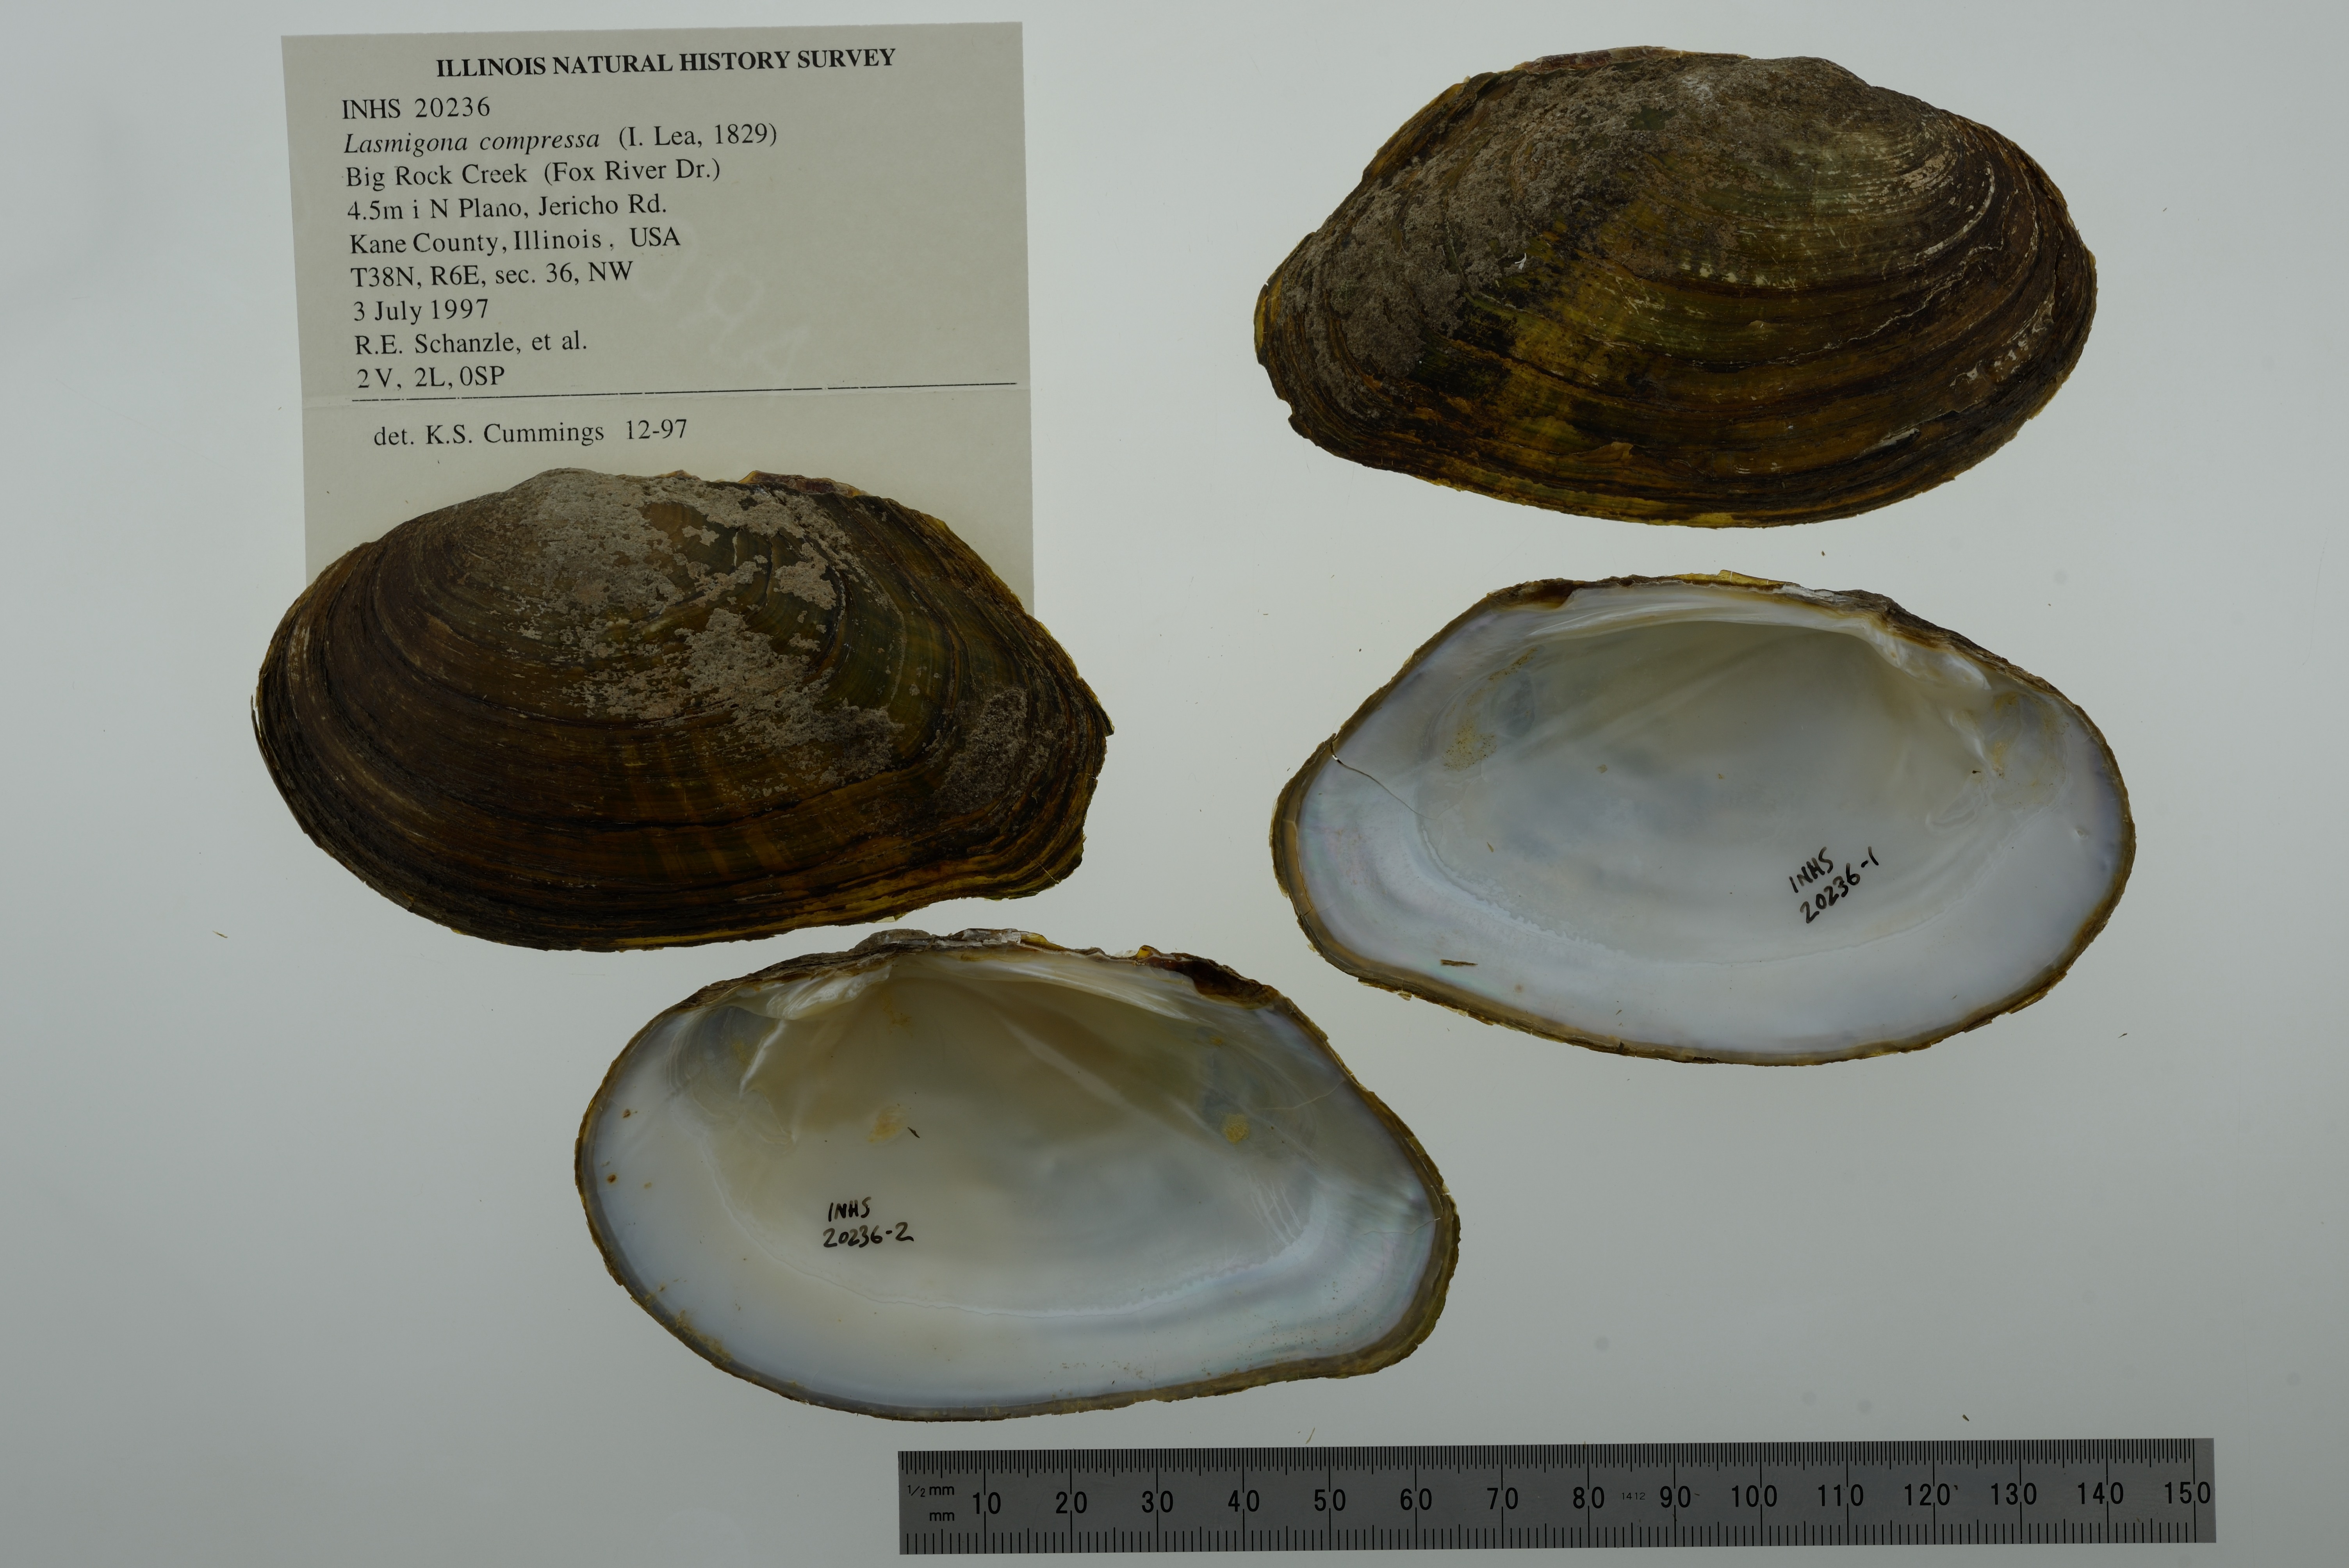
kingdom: Animalia
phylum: Mollusca
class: Bivalvia
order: Unionida
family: Unionidae
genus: Lasmigona
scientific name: Lasmigona compressa
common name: Creek heelsplitter
